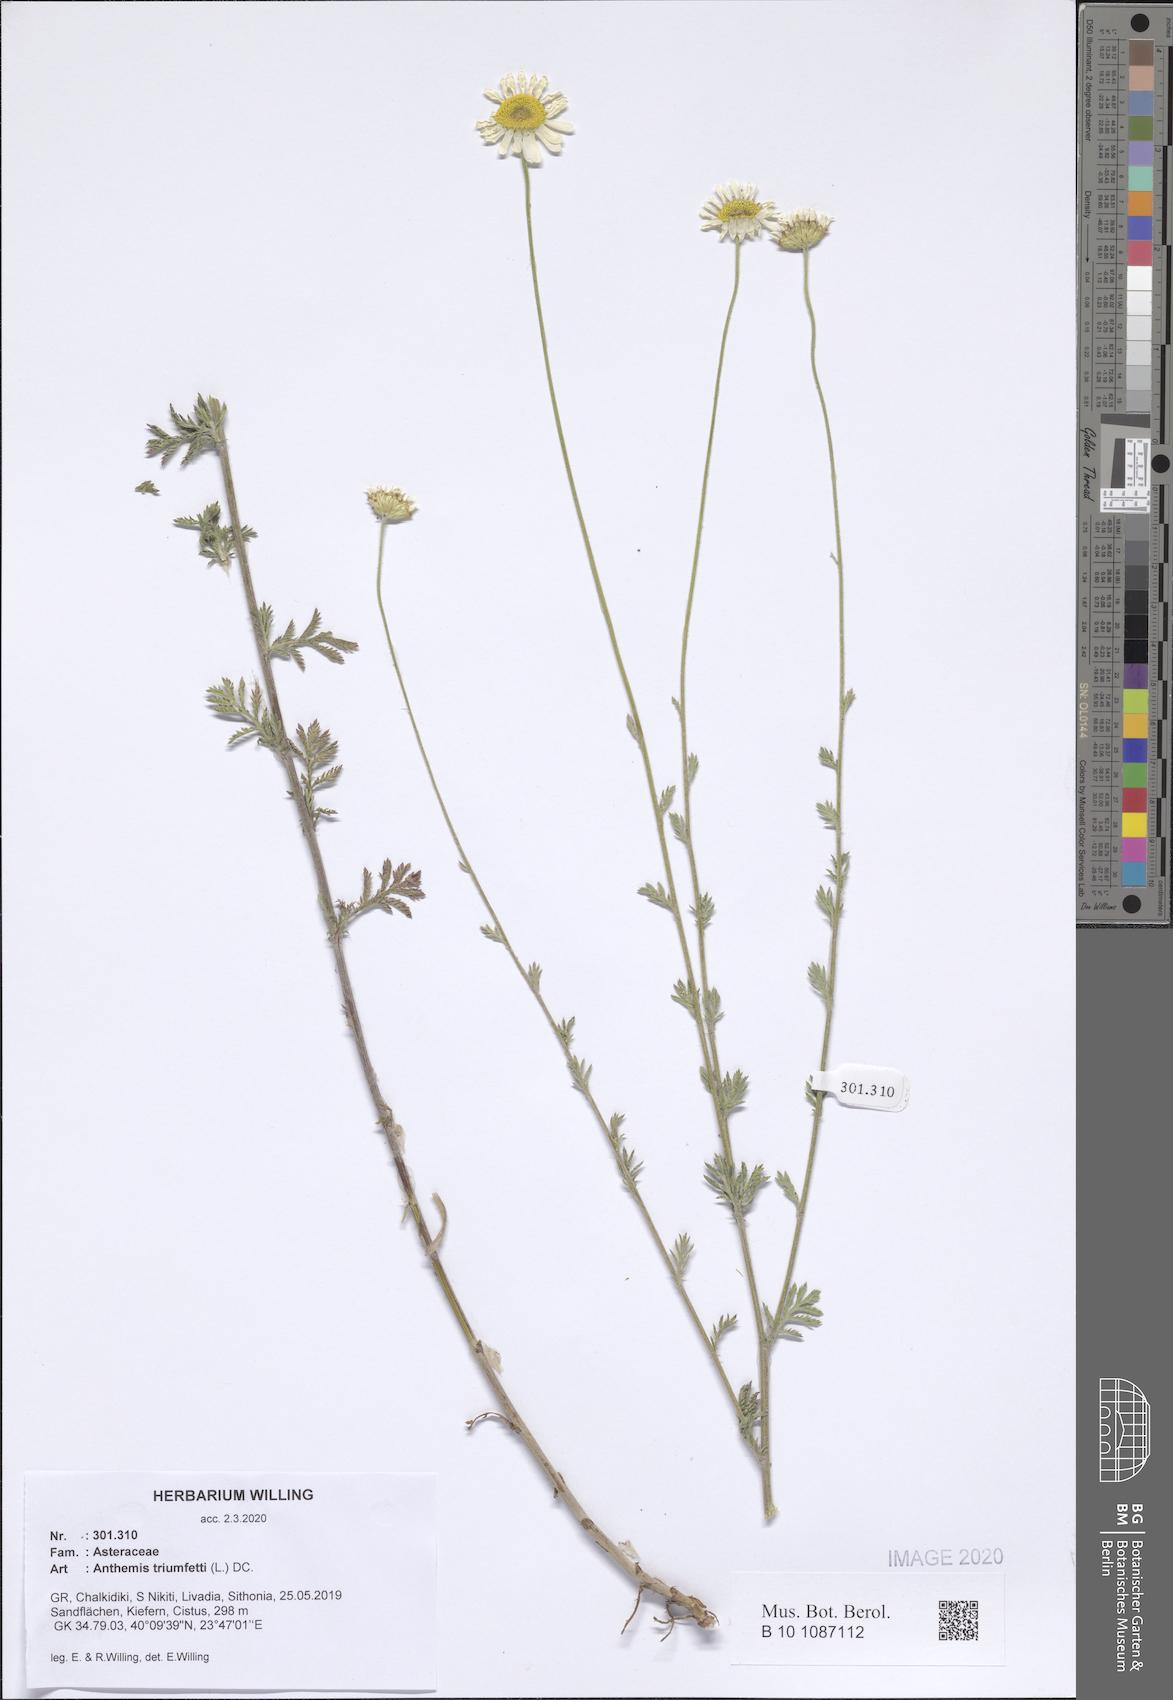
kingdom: Plantae
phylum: Tracheophyta
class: Magnoliopsida
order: Asterales
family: Asteraceae
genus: Cota
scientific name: Cota triumfetti
